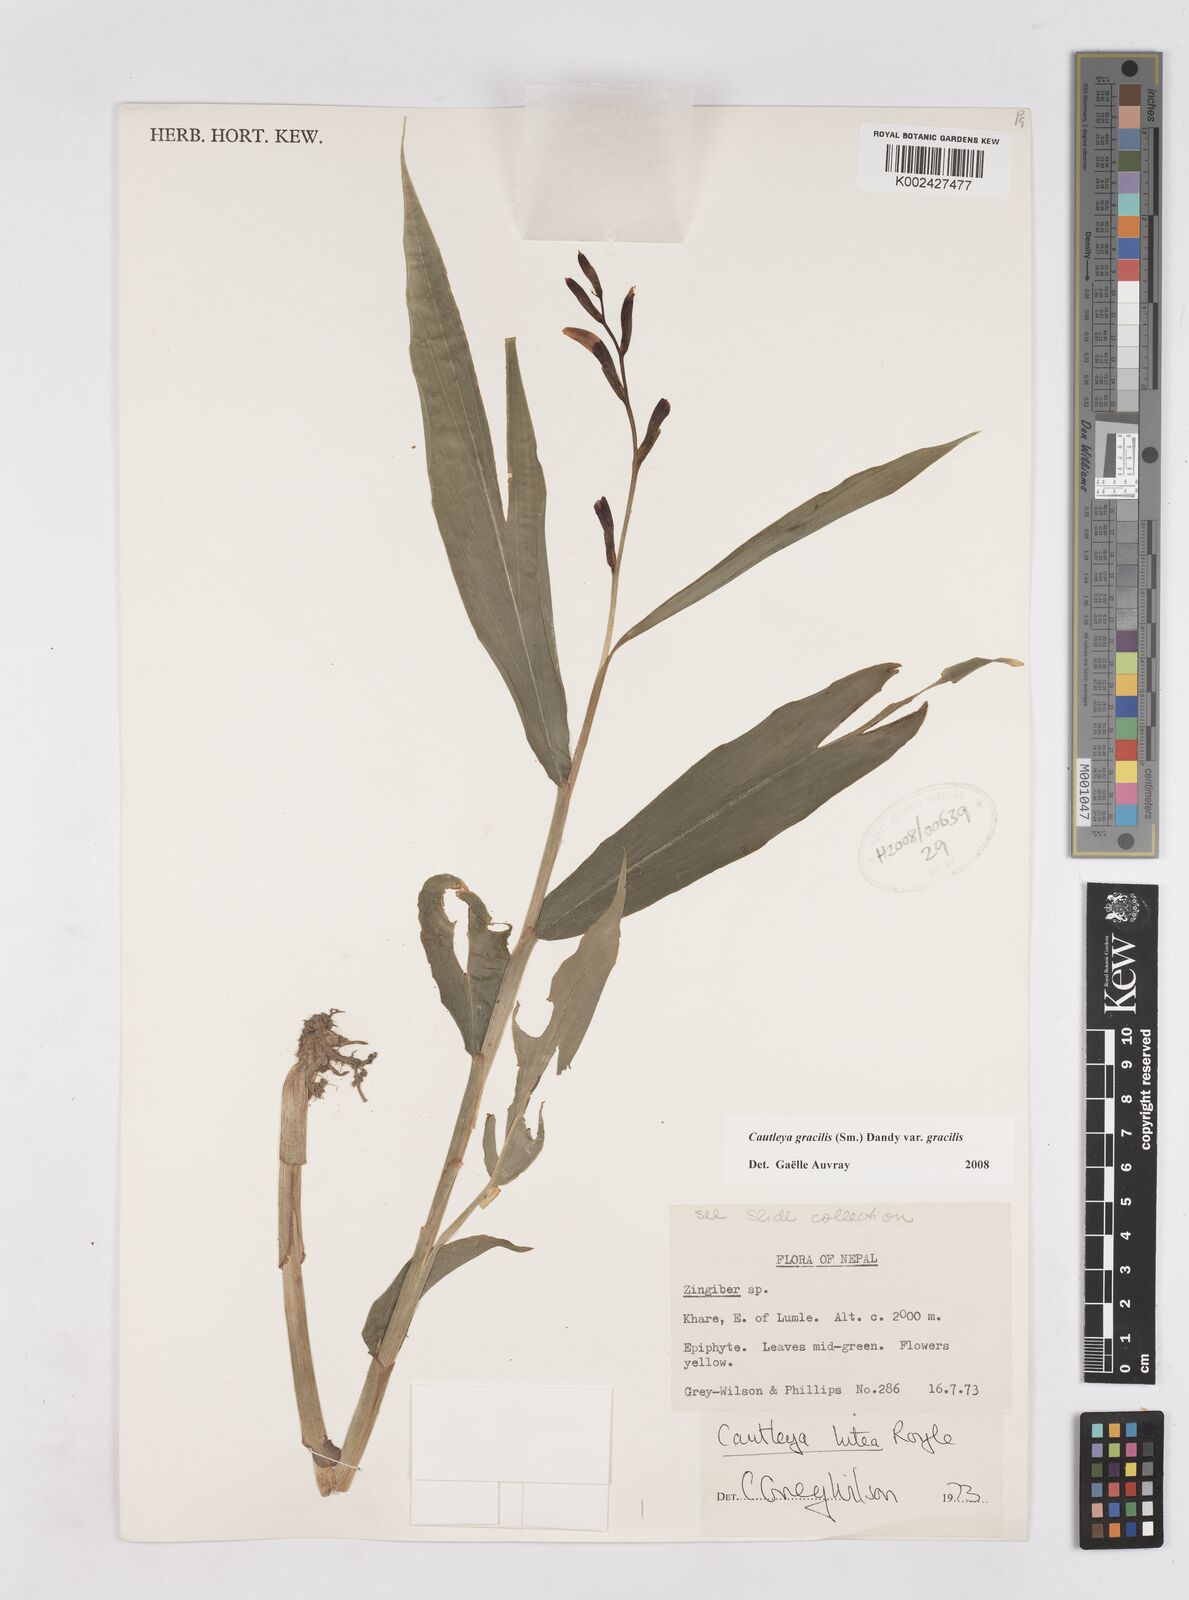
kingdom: Plantae
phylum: Tracheophyta
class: Liliopsida
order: Zingiberales
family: Zingiberaceae
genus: Cautleya
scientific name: Cautleya gracilis
